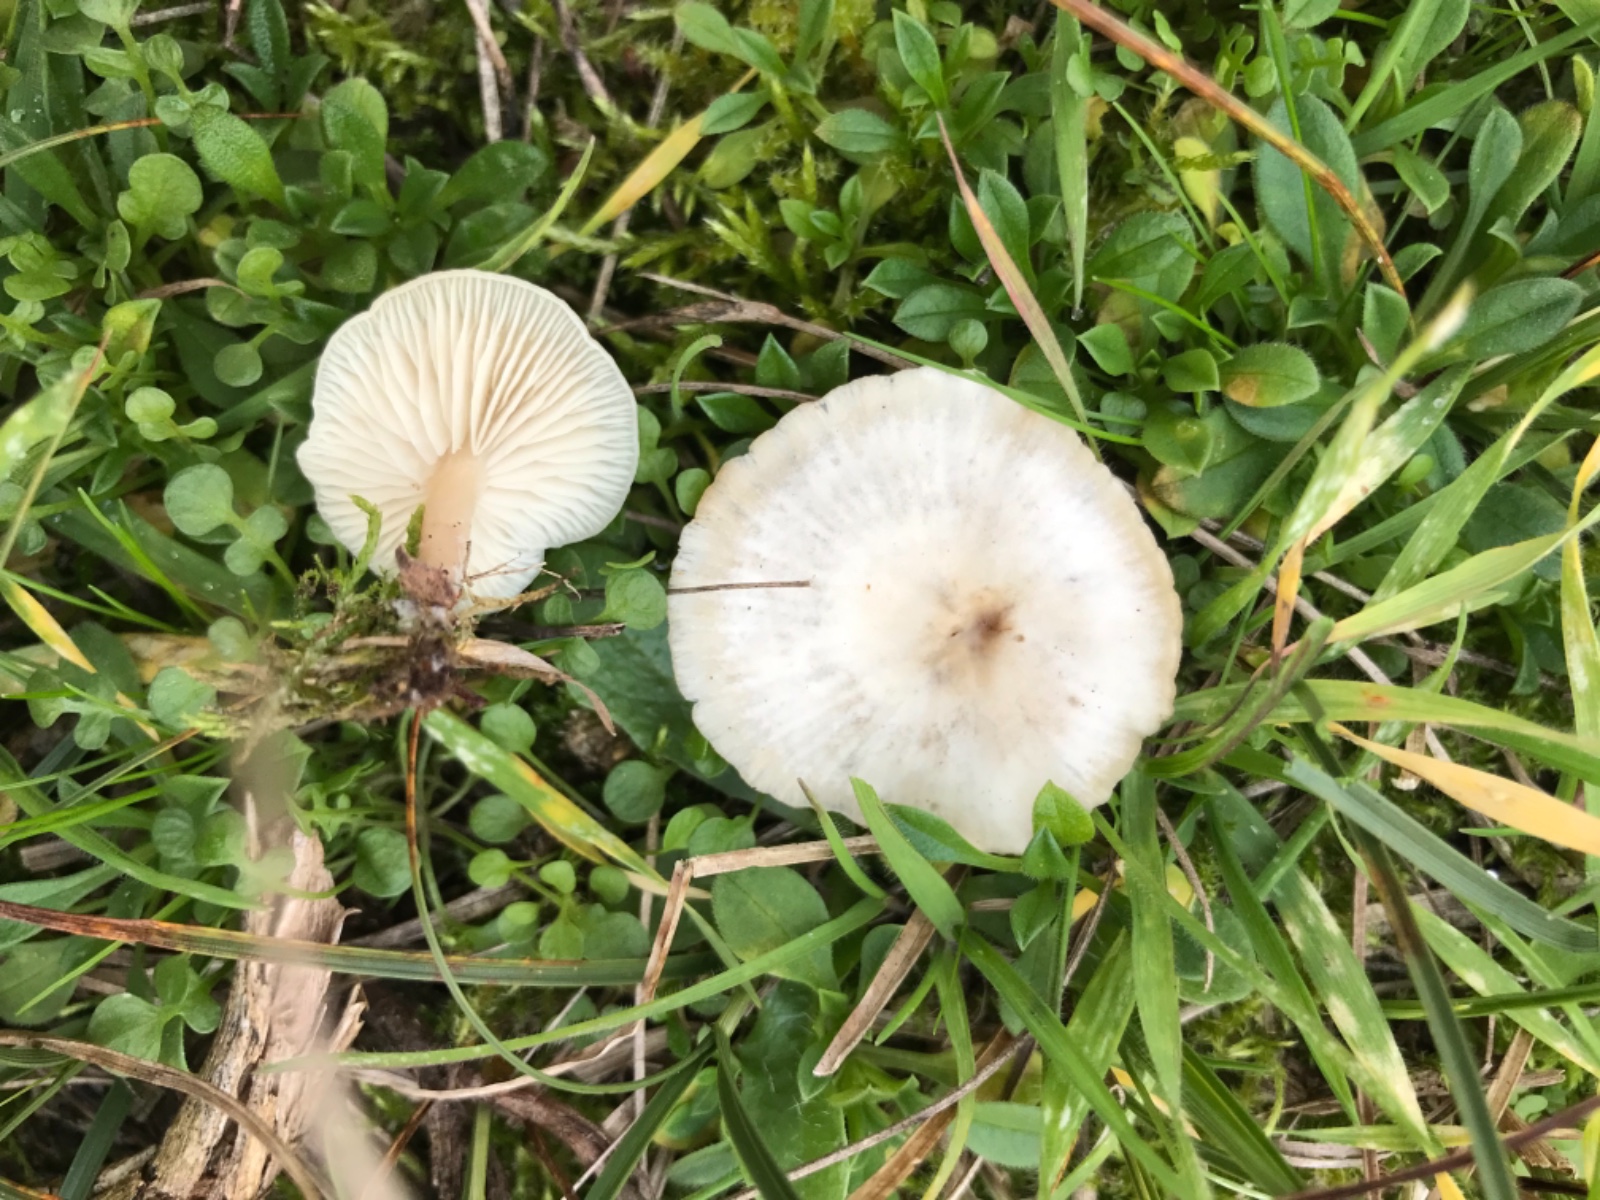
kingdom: Fungi
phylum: Basidiomycota
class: Agaricomycetes
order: Agaricales
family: Tricholomataceae
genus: Clitocybe
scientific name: Clitocybe
